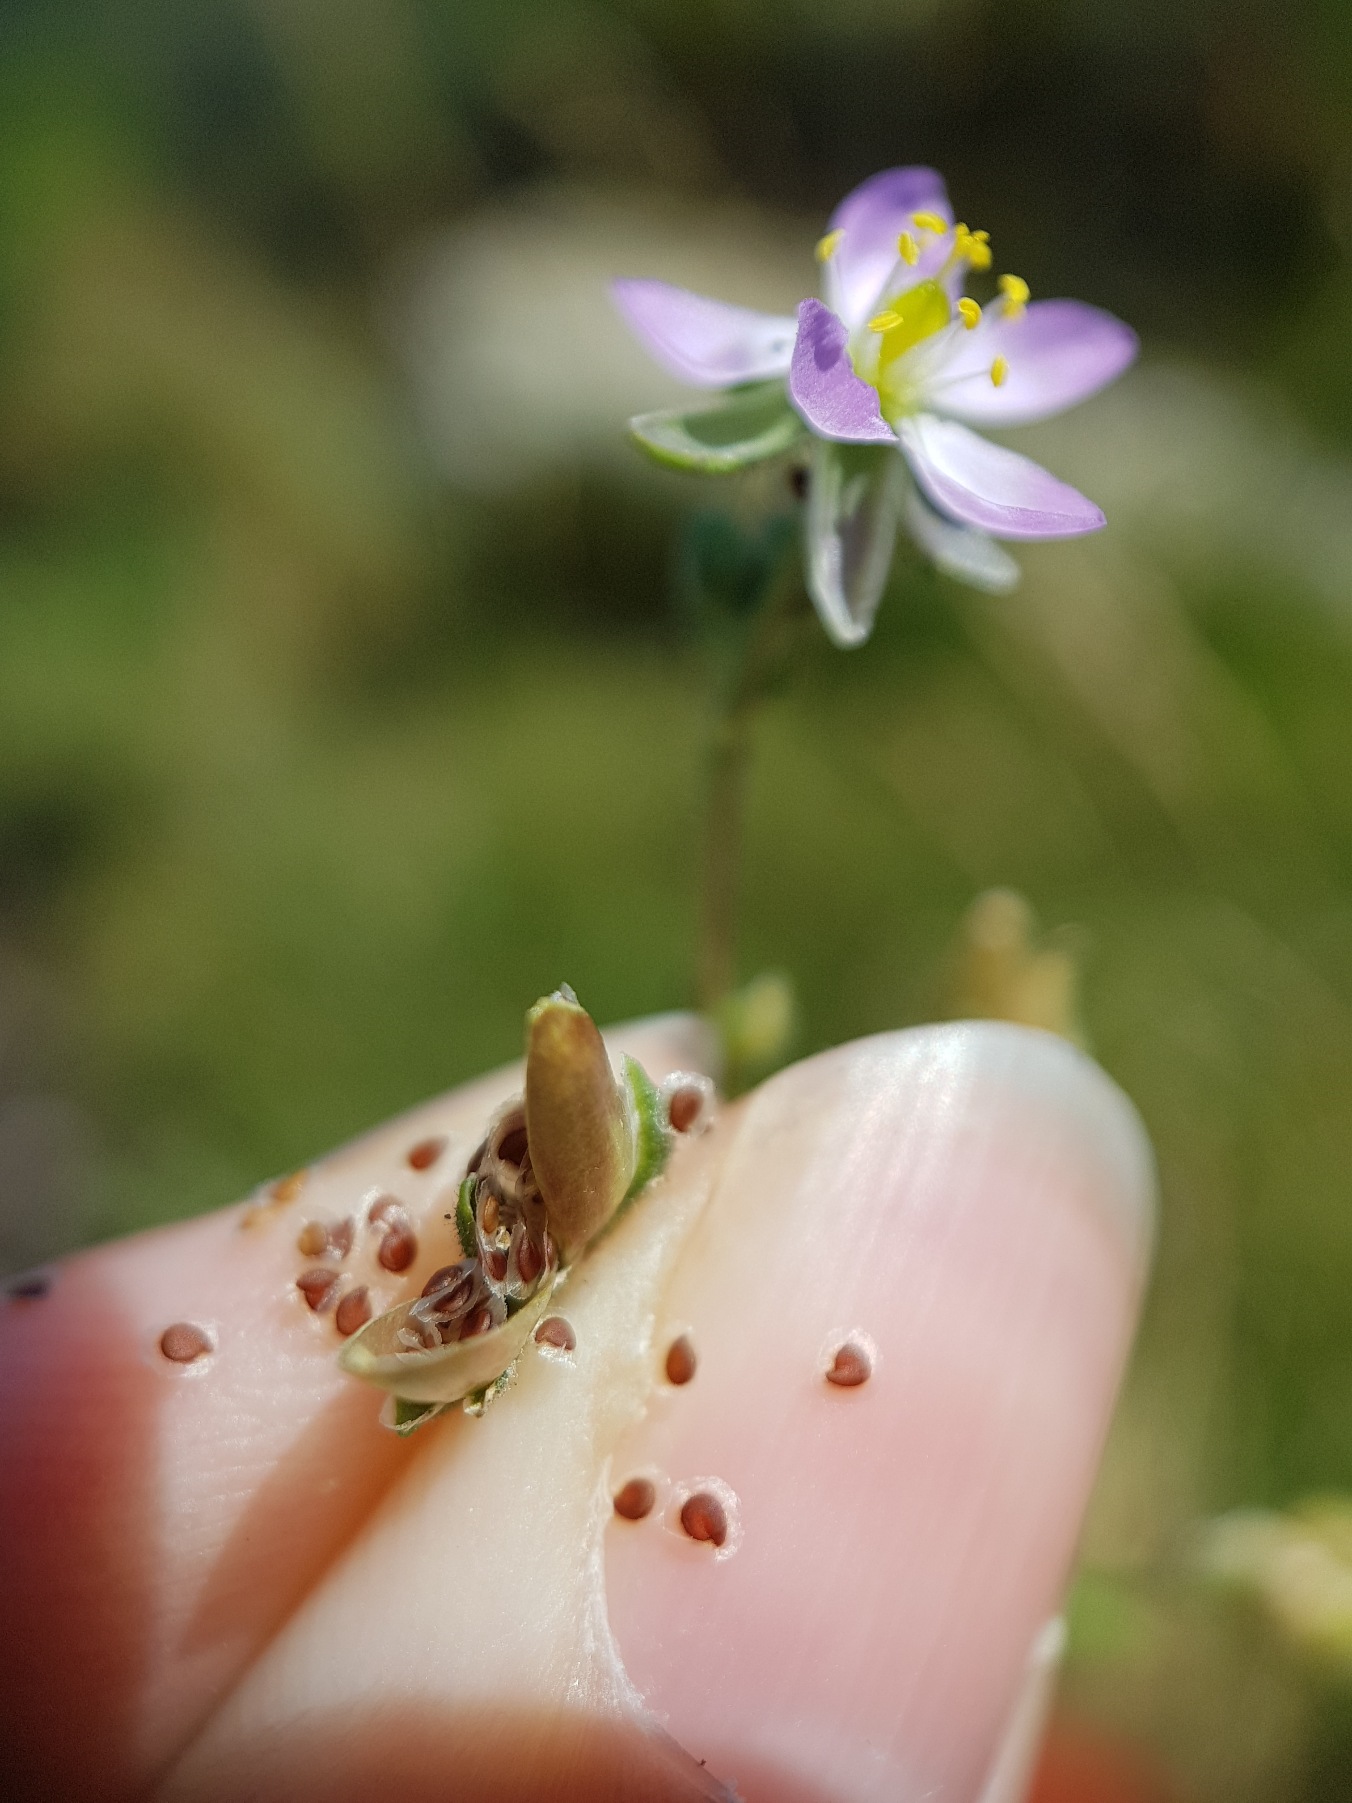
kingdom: Plantae
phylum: Tracheophyta
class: Magnoliopsida
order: Caryophyllales
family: Caryophyllaceae
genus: Spergularia
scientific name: Spergularia media
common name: Vingefrøet hindeknæ
